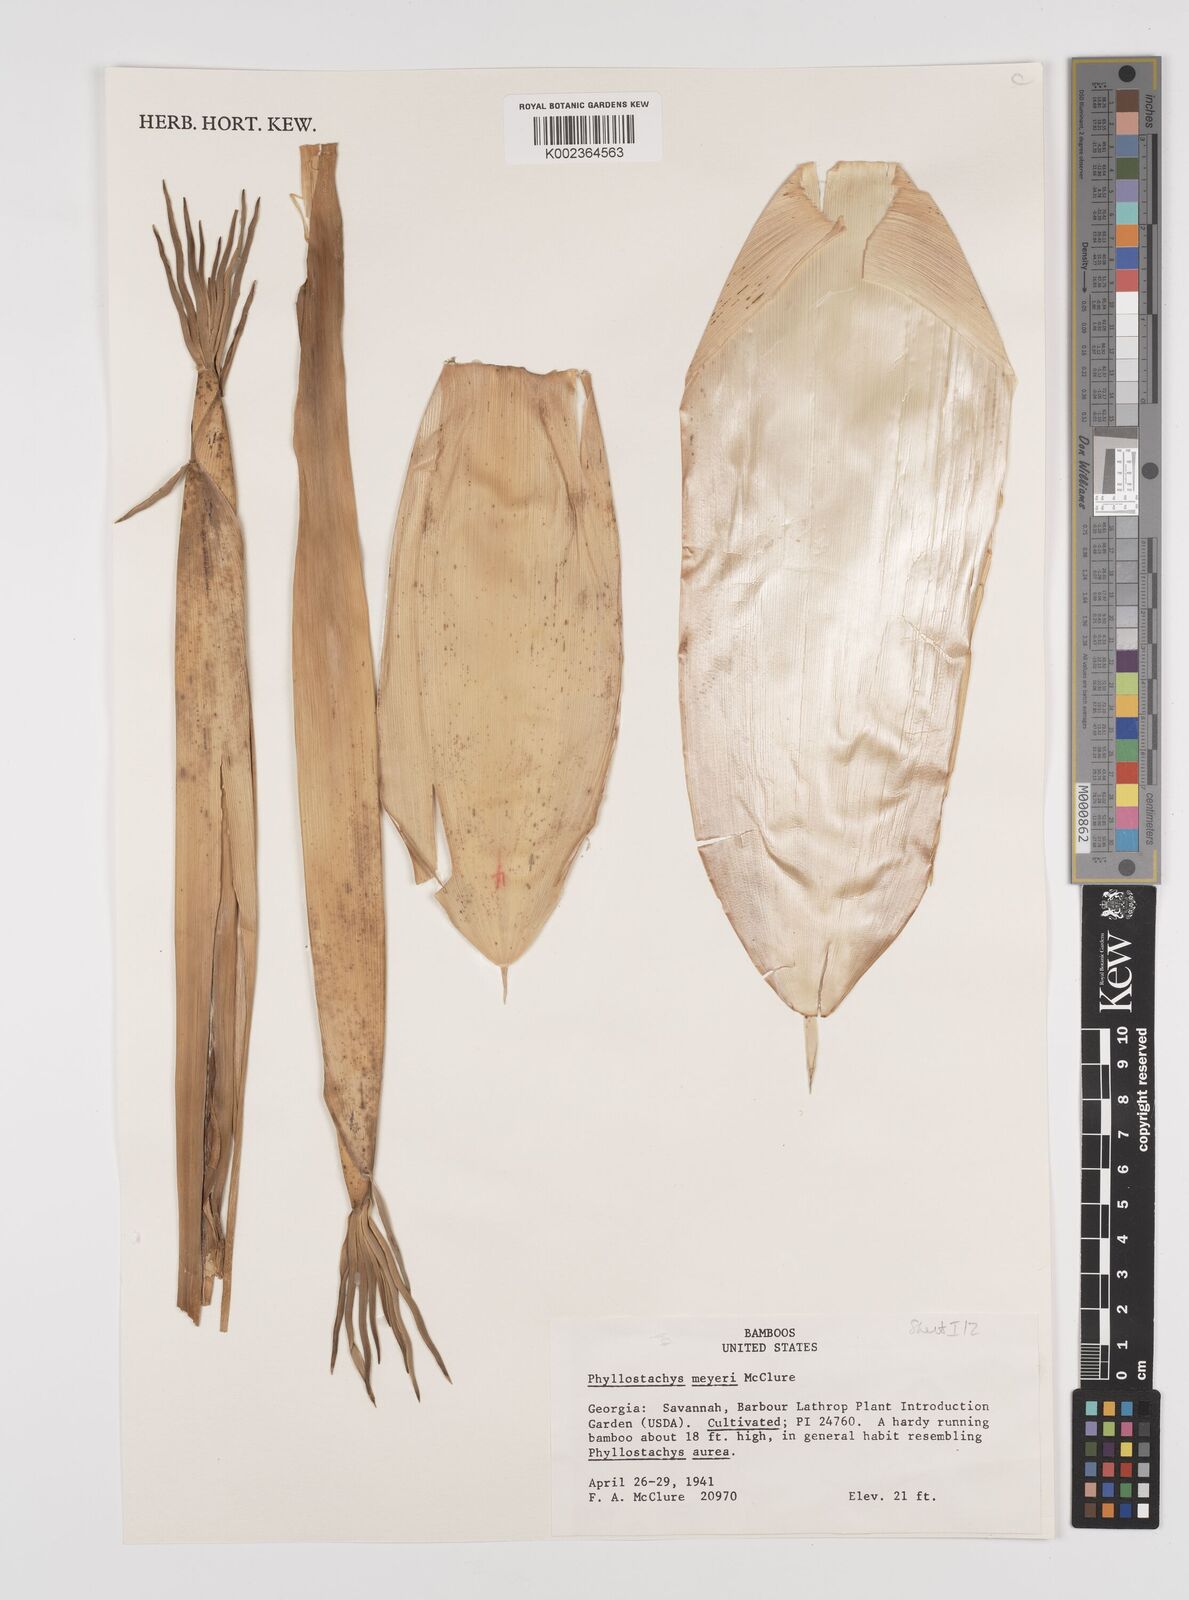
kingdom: Plantae
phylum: Tracheophyta
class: Liliopsida
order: Poales
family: Poaceae
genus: Phyllostachys
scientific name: Phyllostachys meyeri
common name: Meyer's bamboo
